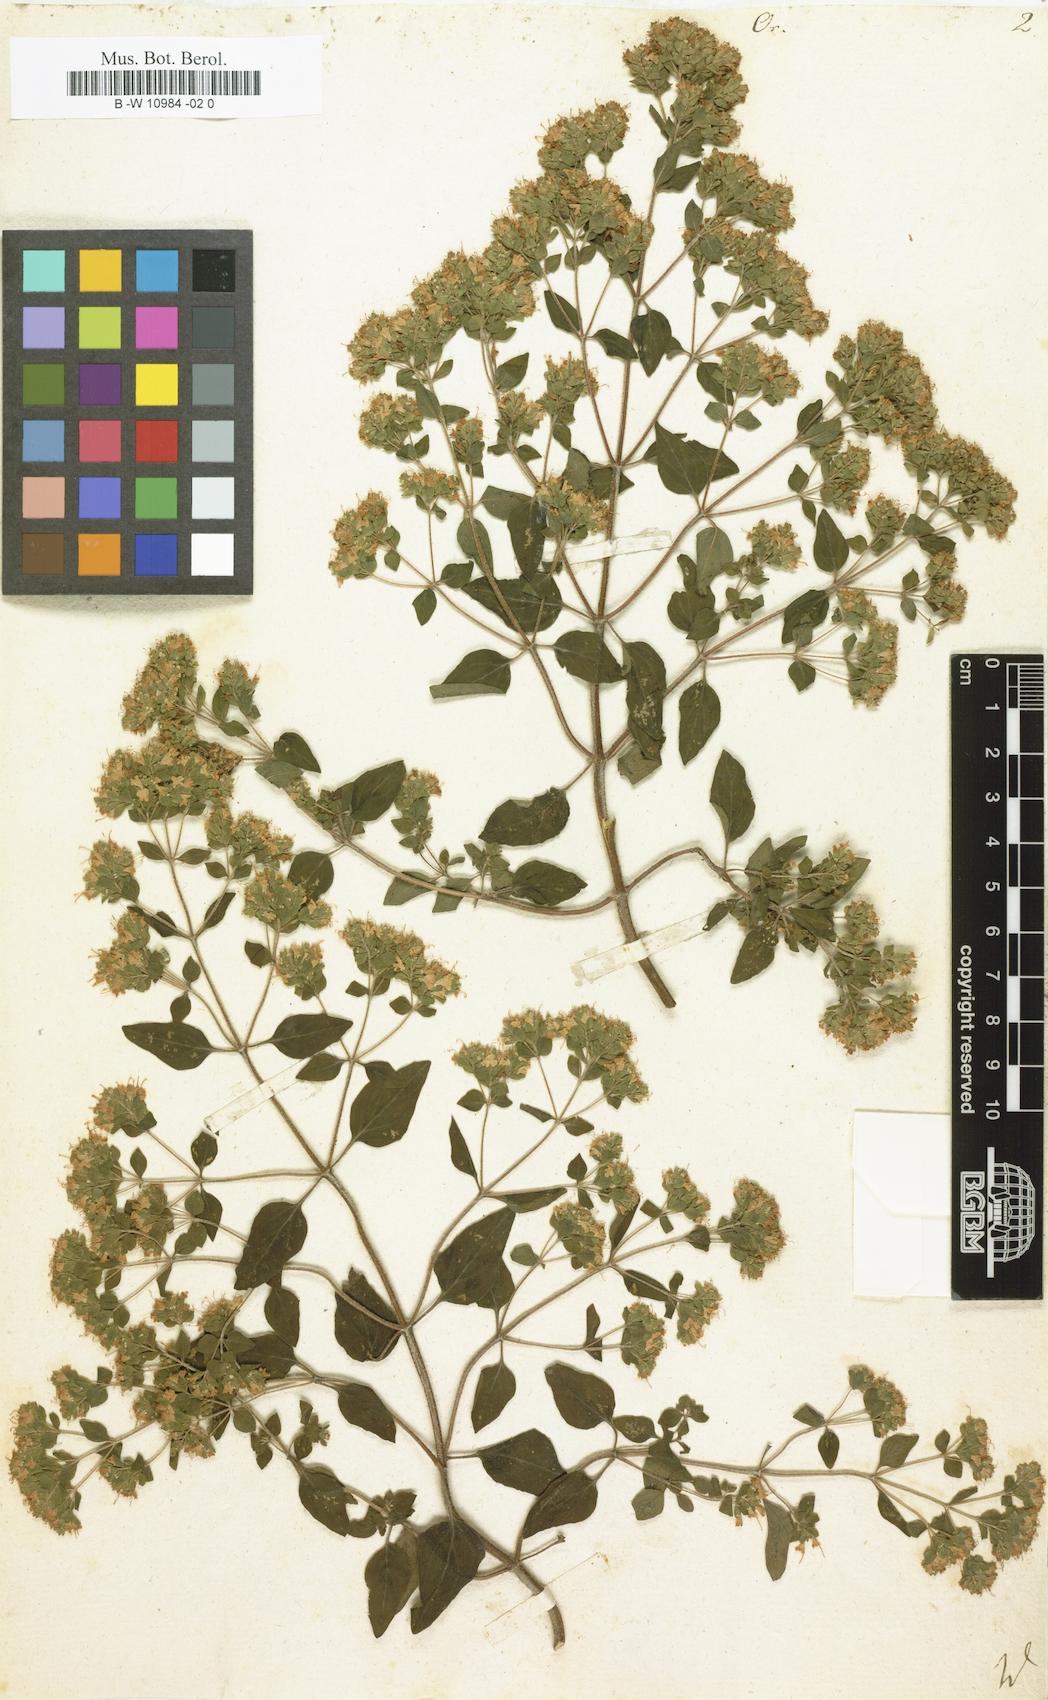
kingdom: Plantae
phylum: Tracheophyta
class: Magnoliopsida
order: Lamiales
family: Lamiaceae
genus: Origanum
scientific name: Origanum
